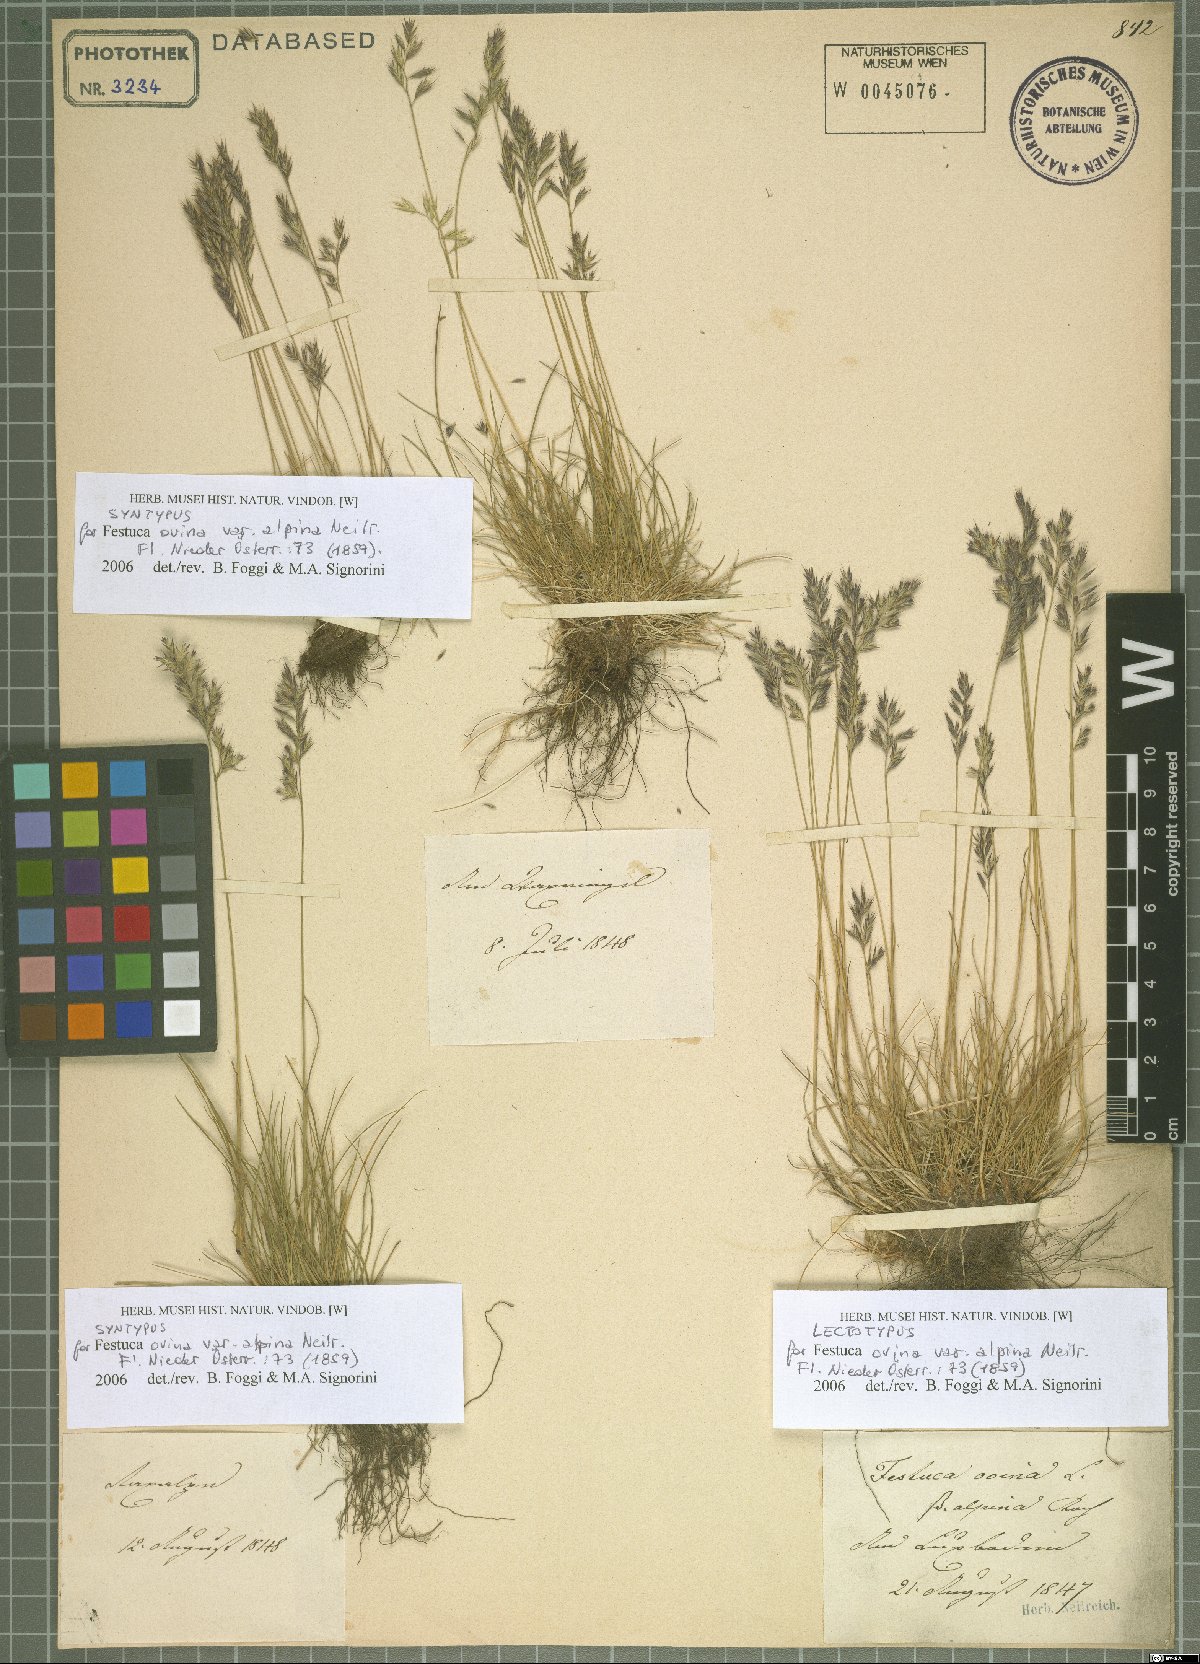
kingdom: Plantae
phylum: Tracheophyta
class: Liliopsida
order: Poales
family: Poaceae
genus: Festuca
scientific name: Festuca
